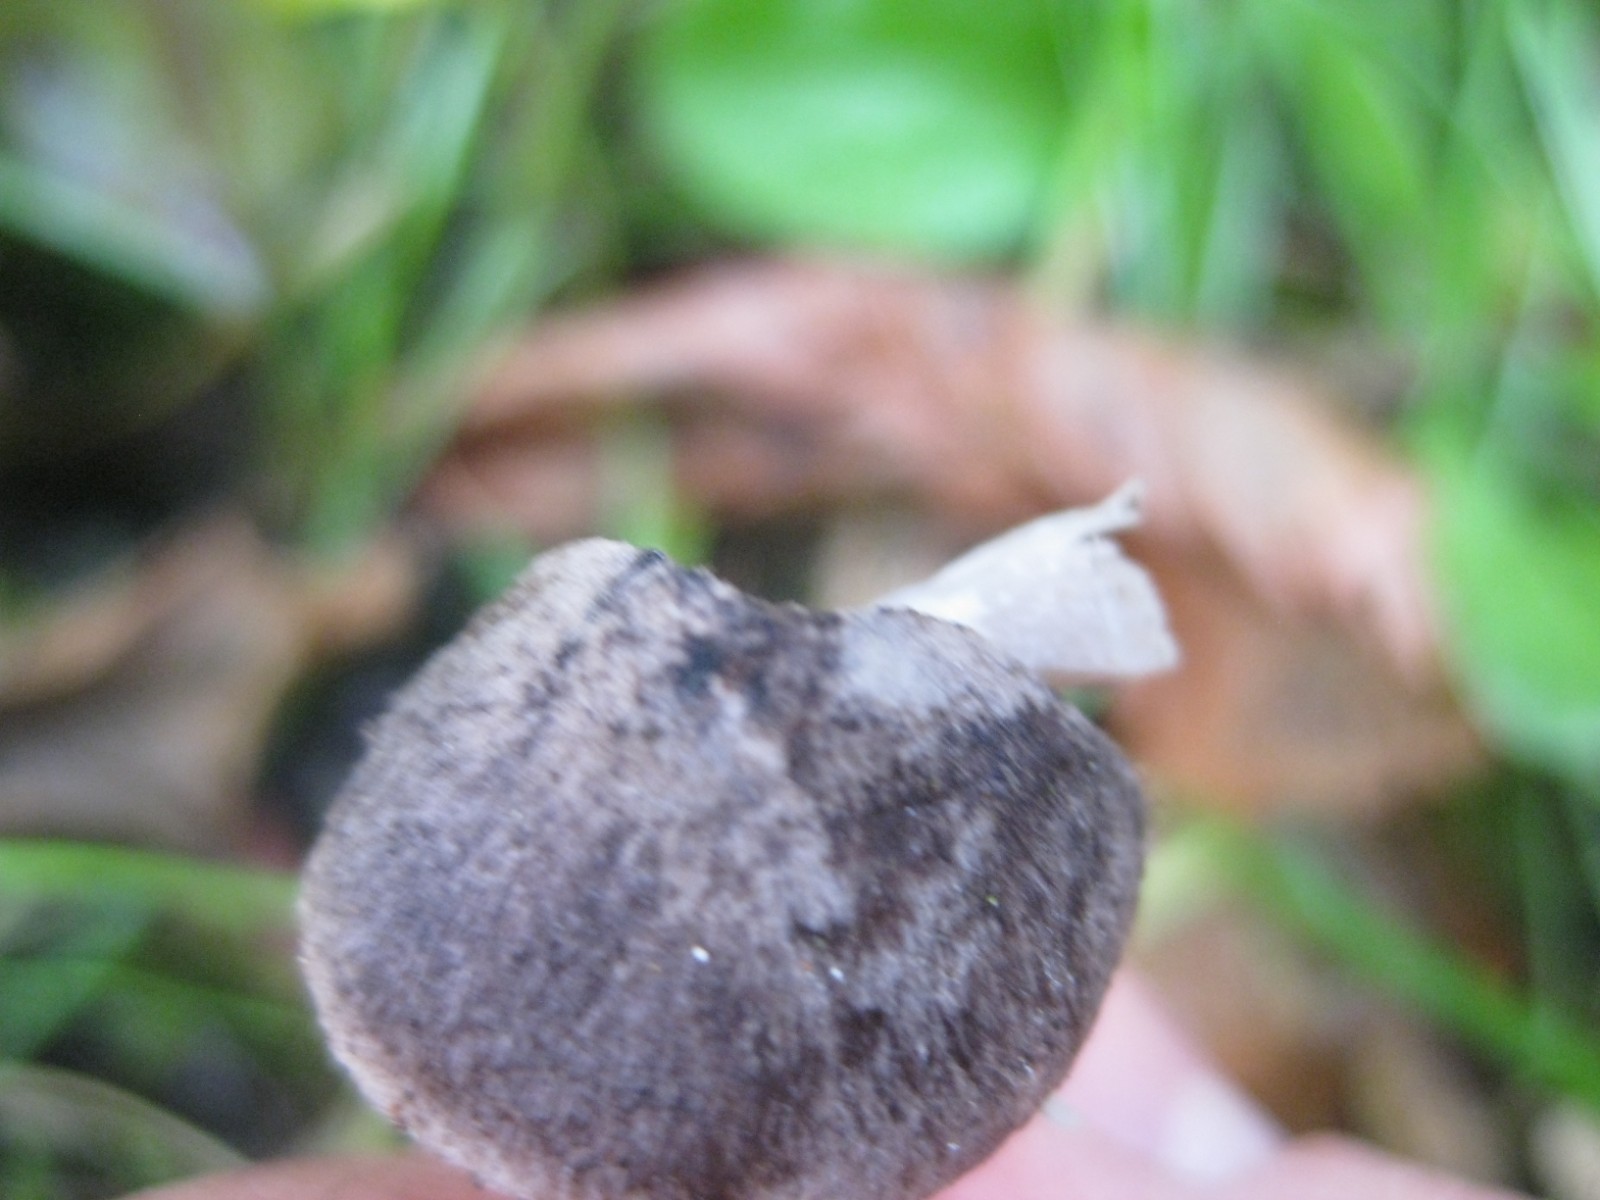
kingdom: Fungi
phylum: Basidiomycota
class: Agaricomycetes
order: Agaricales
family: Tricholomataceae
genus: Tricholoma
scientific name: Tricholoma terreum
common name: jordfarvet ridderhat
